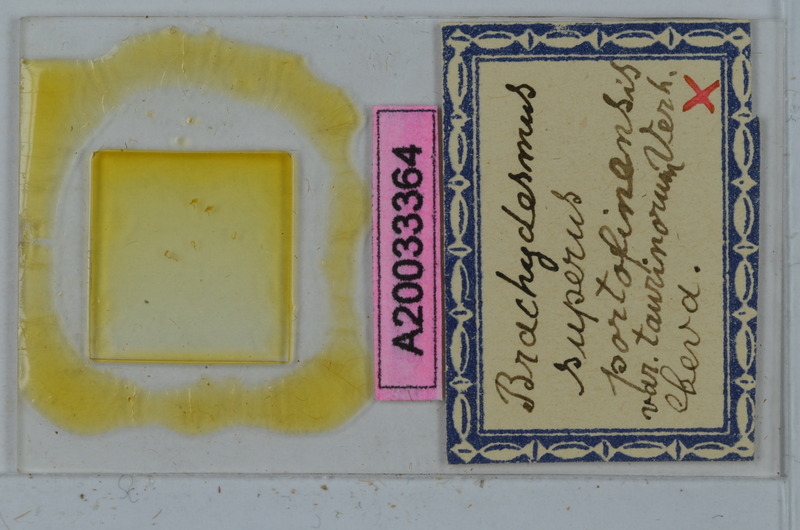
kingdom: Animalia
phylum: Arthropoda
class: Diplopoda
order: Polydesmida
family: Polydesmidae
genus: Brachydesmus
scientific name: Brachydesmus superus
